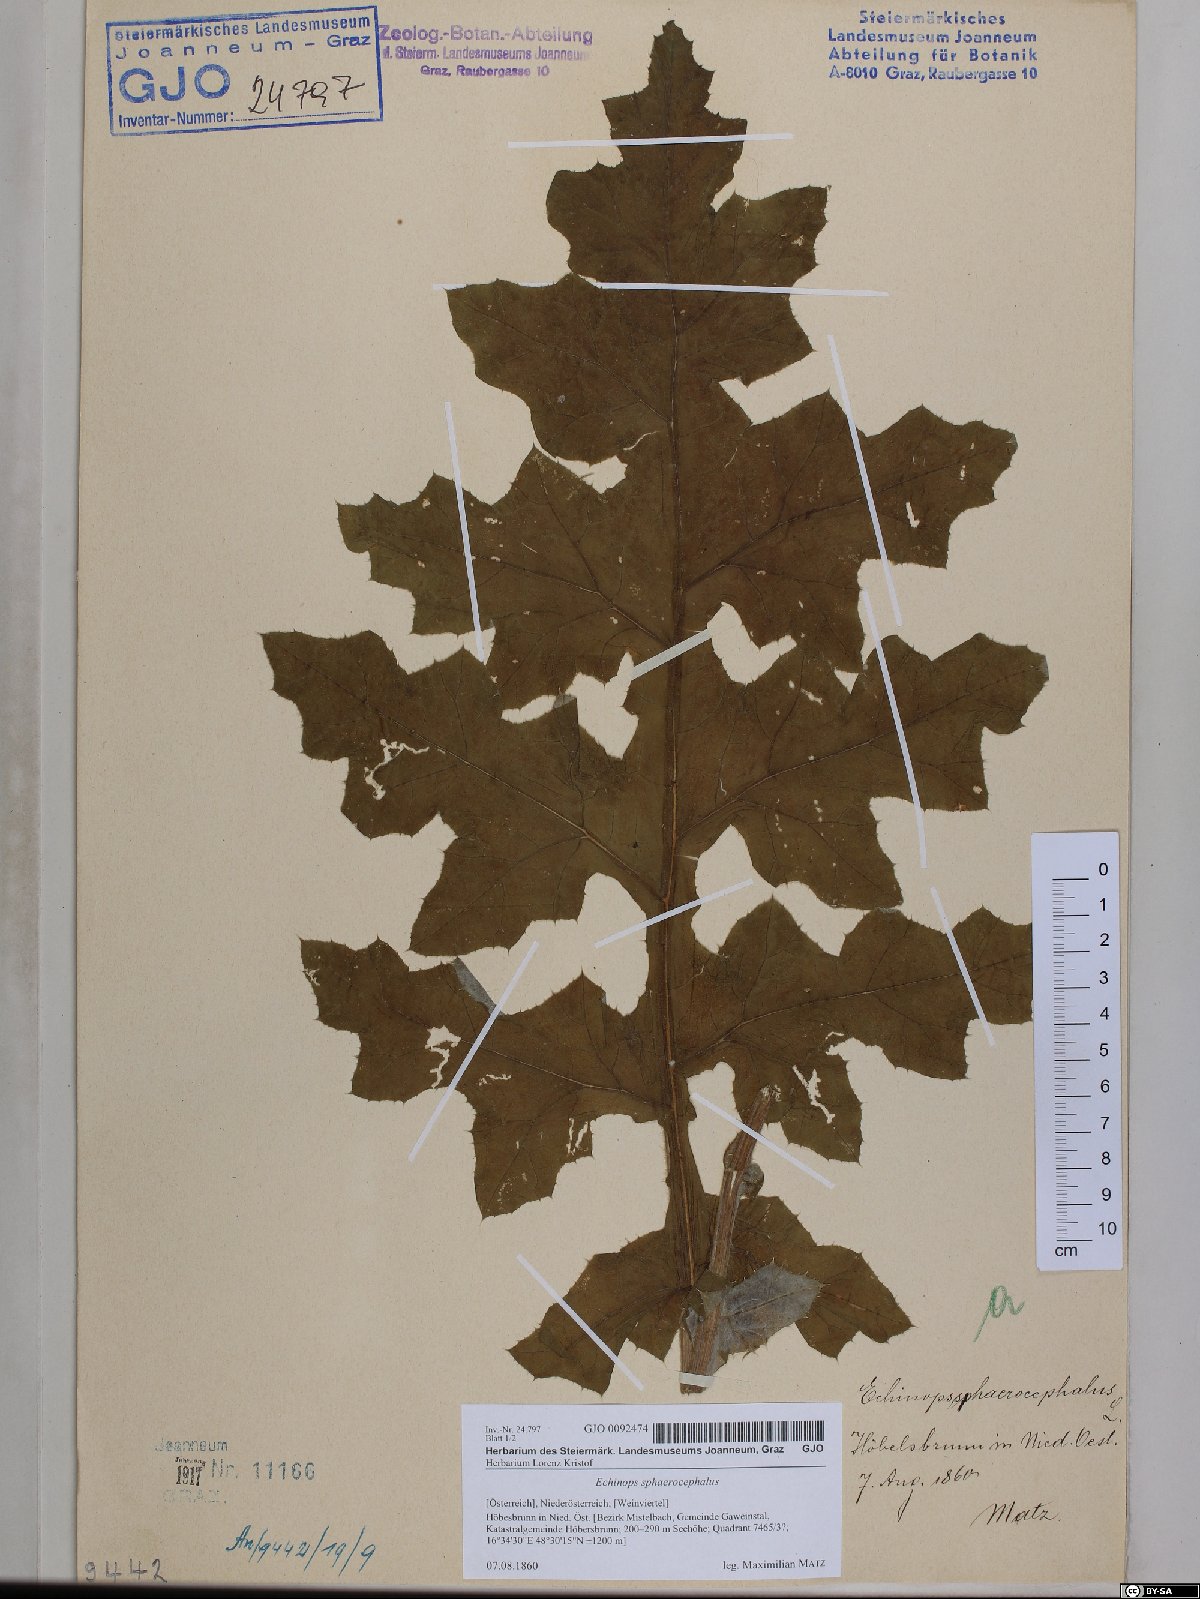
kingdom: Plantae
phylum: Tracheophyta
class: Magnoliopsida
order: Asterales
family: Asteraceae
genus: Echinops
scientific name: Echinops sphaerocephalus
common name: Glandular globe-thistle
